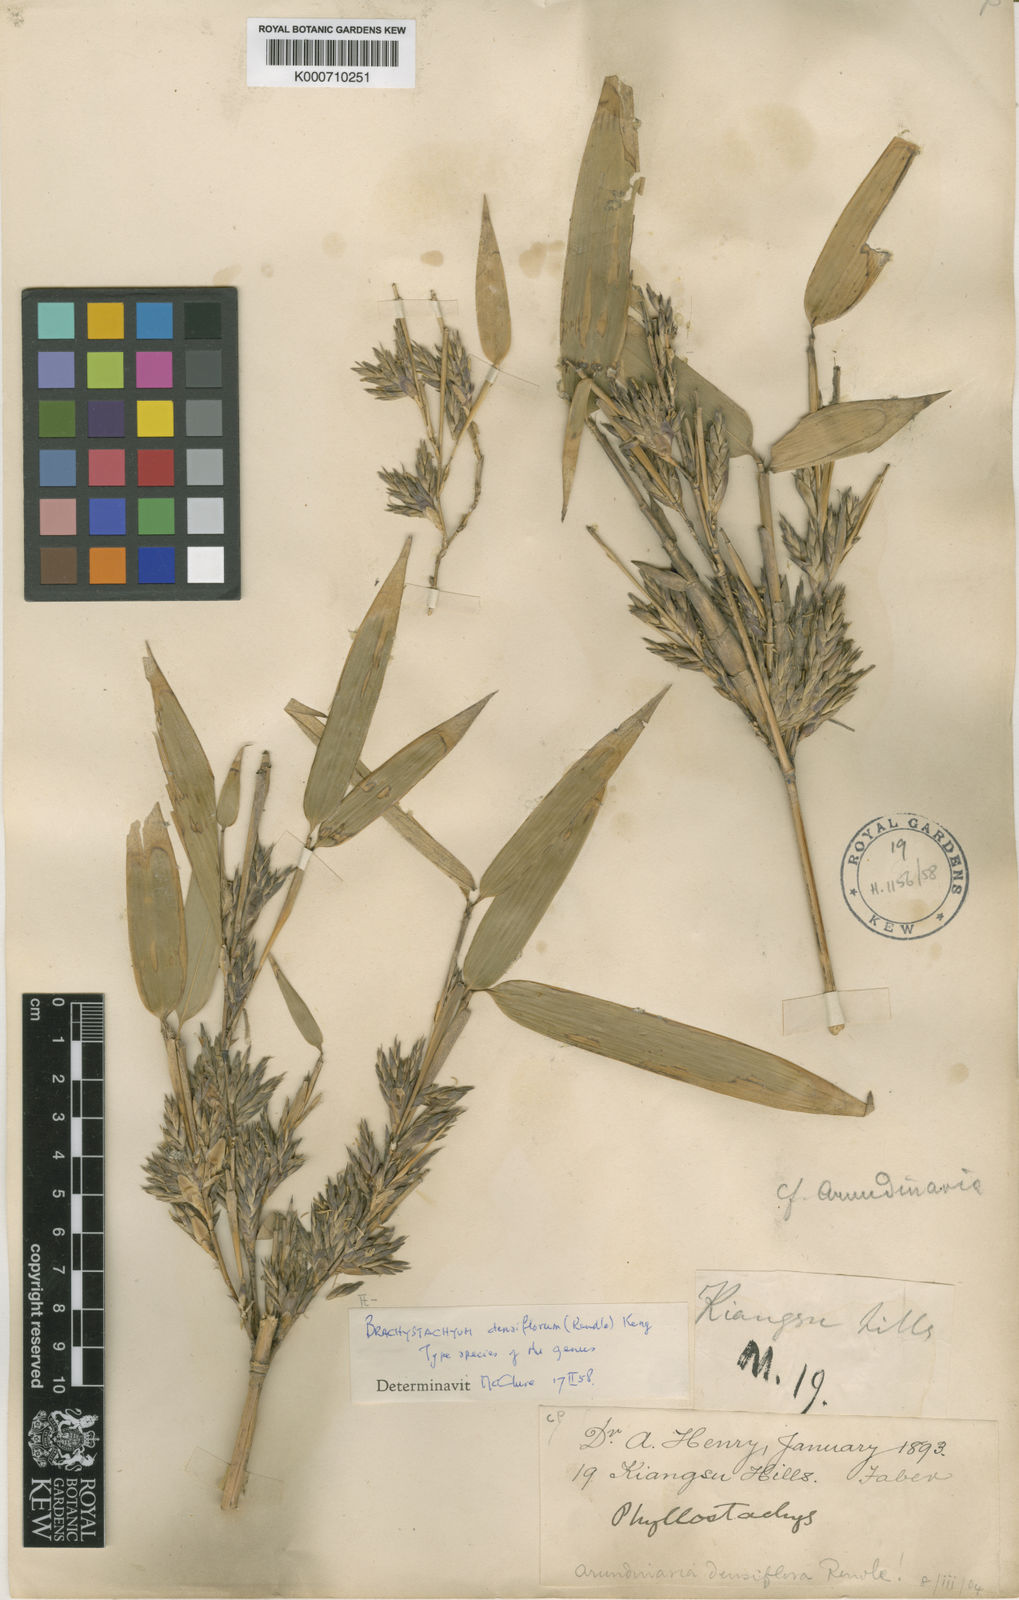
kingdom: Plantae
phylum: Tracheophyta
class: Liliopsida
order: Poales
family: Poaceae
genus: Brachystachyum
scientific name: Brachystachyum densiflorum
